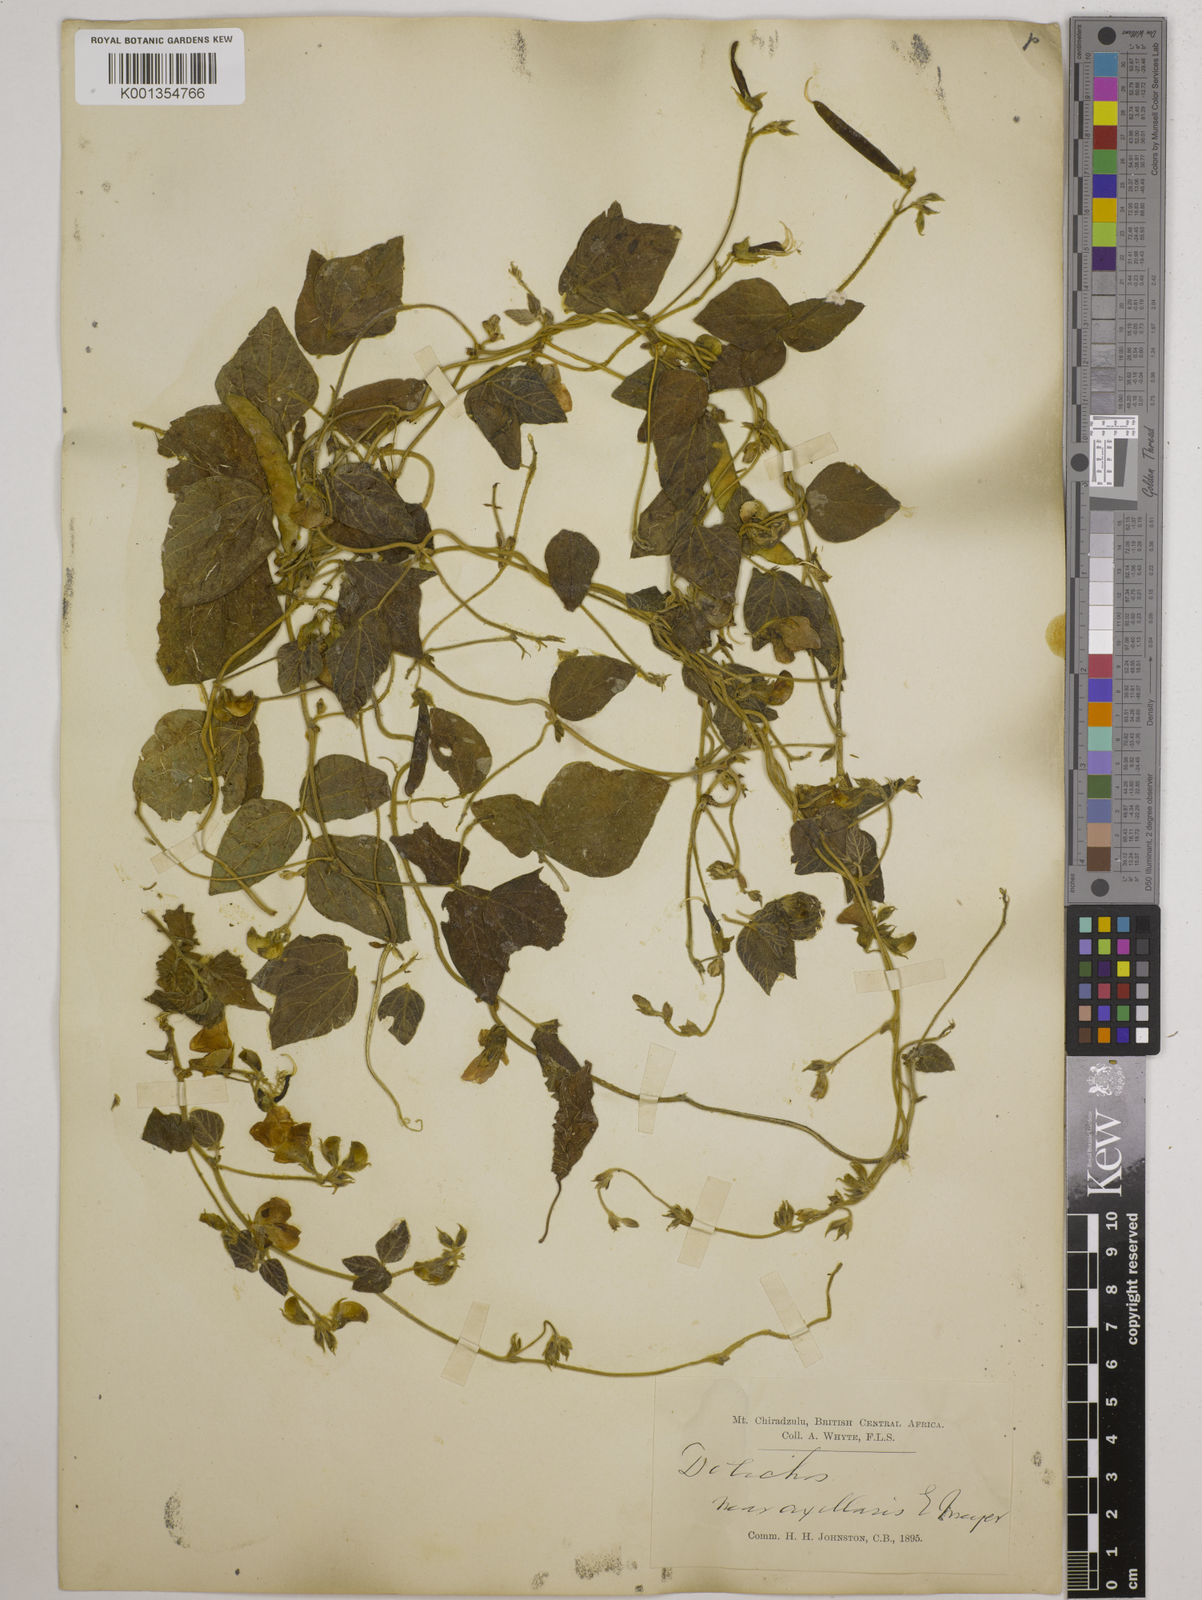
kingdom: Plantae
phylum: Tracheophyta
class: Magnoliopsida
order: Fabales
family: Fabaceae
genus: Dolichos
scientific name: Dolichos
